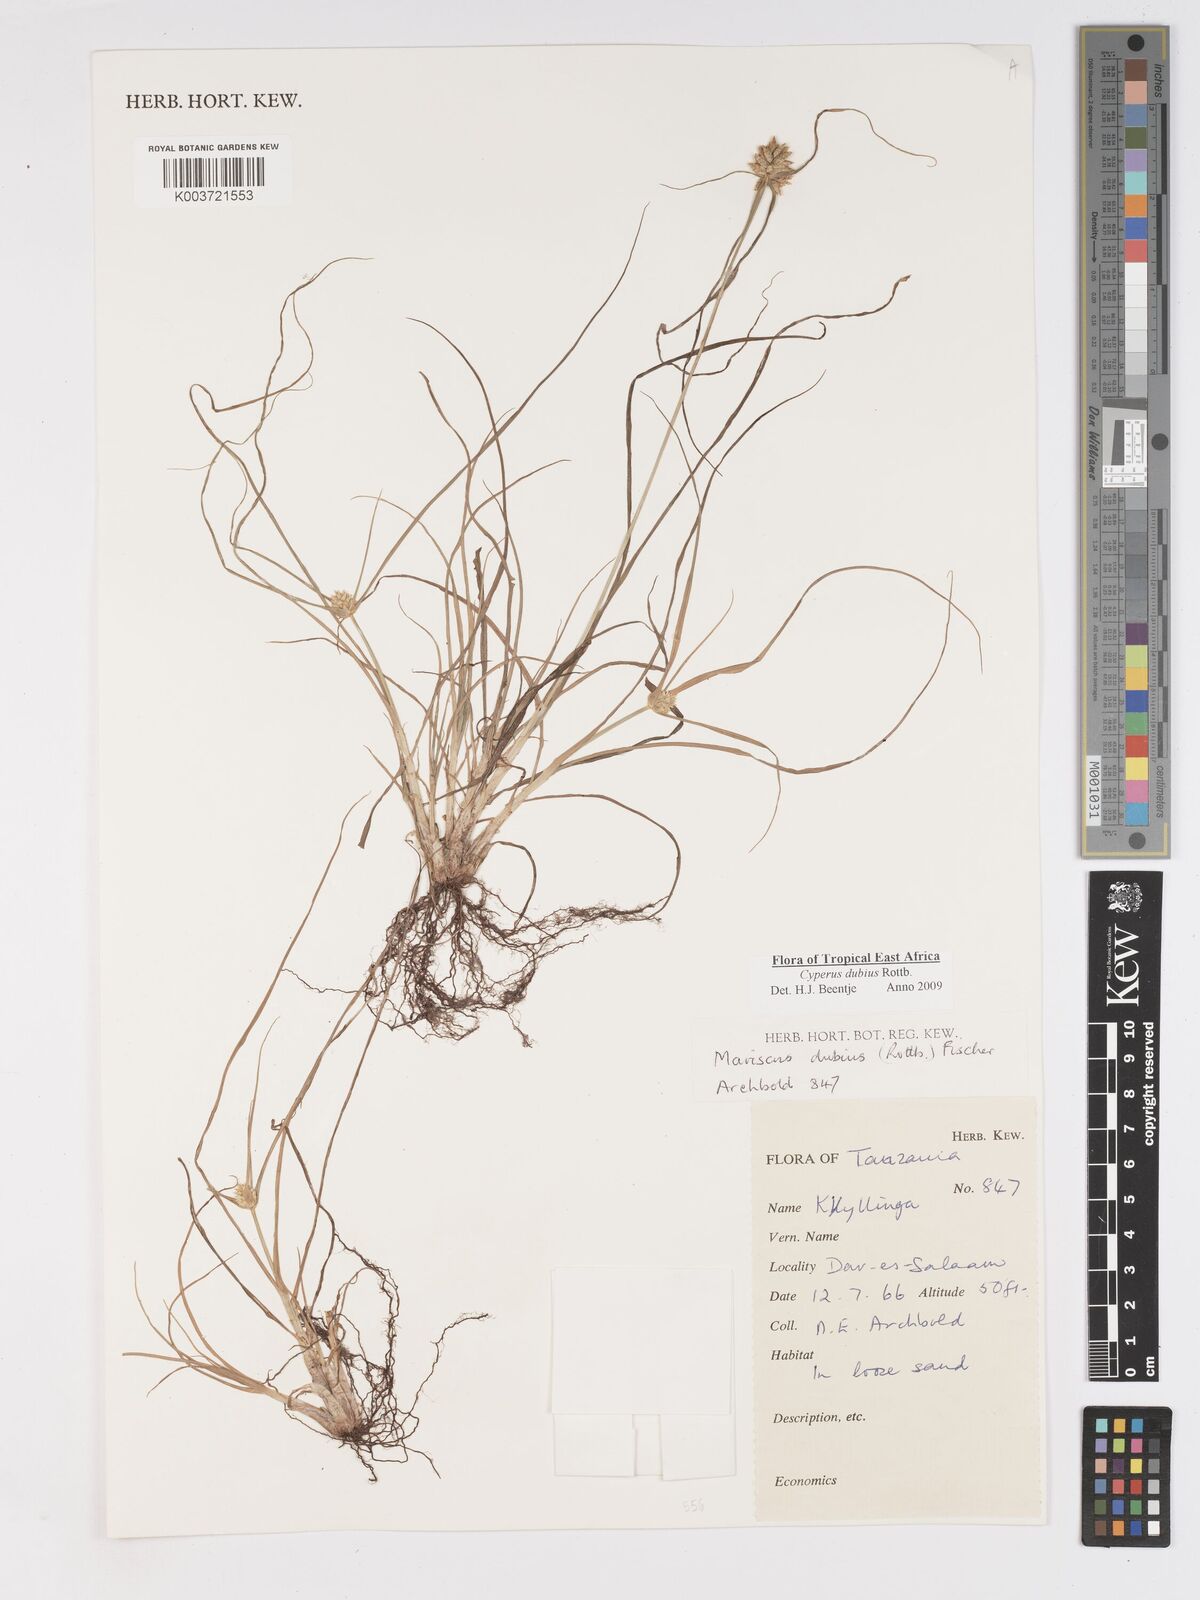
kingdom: Plantae
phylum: Tracheophyta
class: Liliopsida
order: Poales
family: Cyperaceae
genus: Cyperus
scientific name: Cyperus dubius
